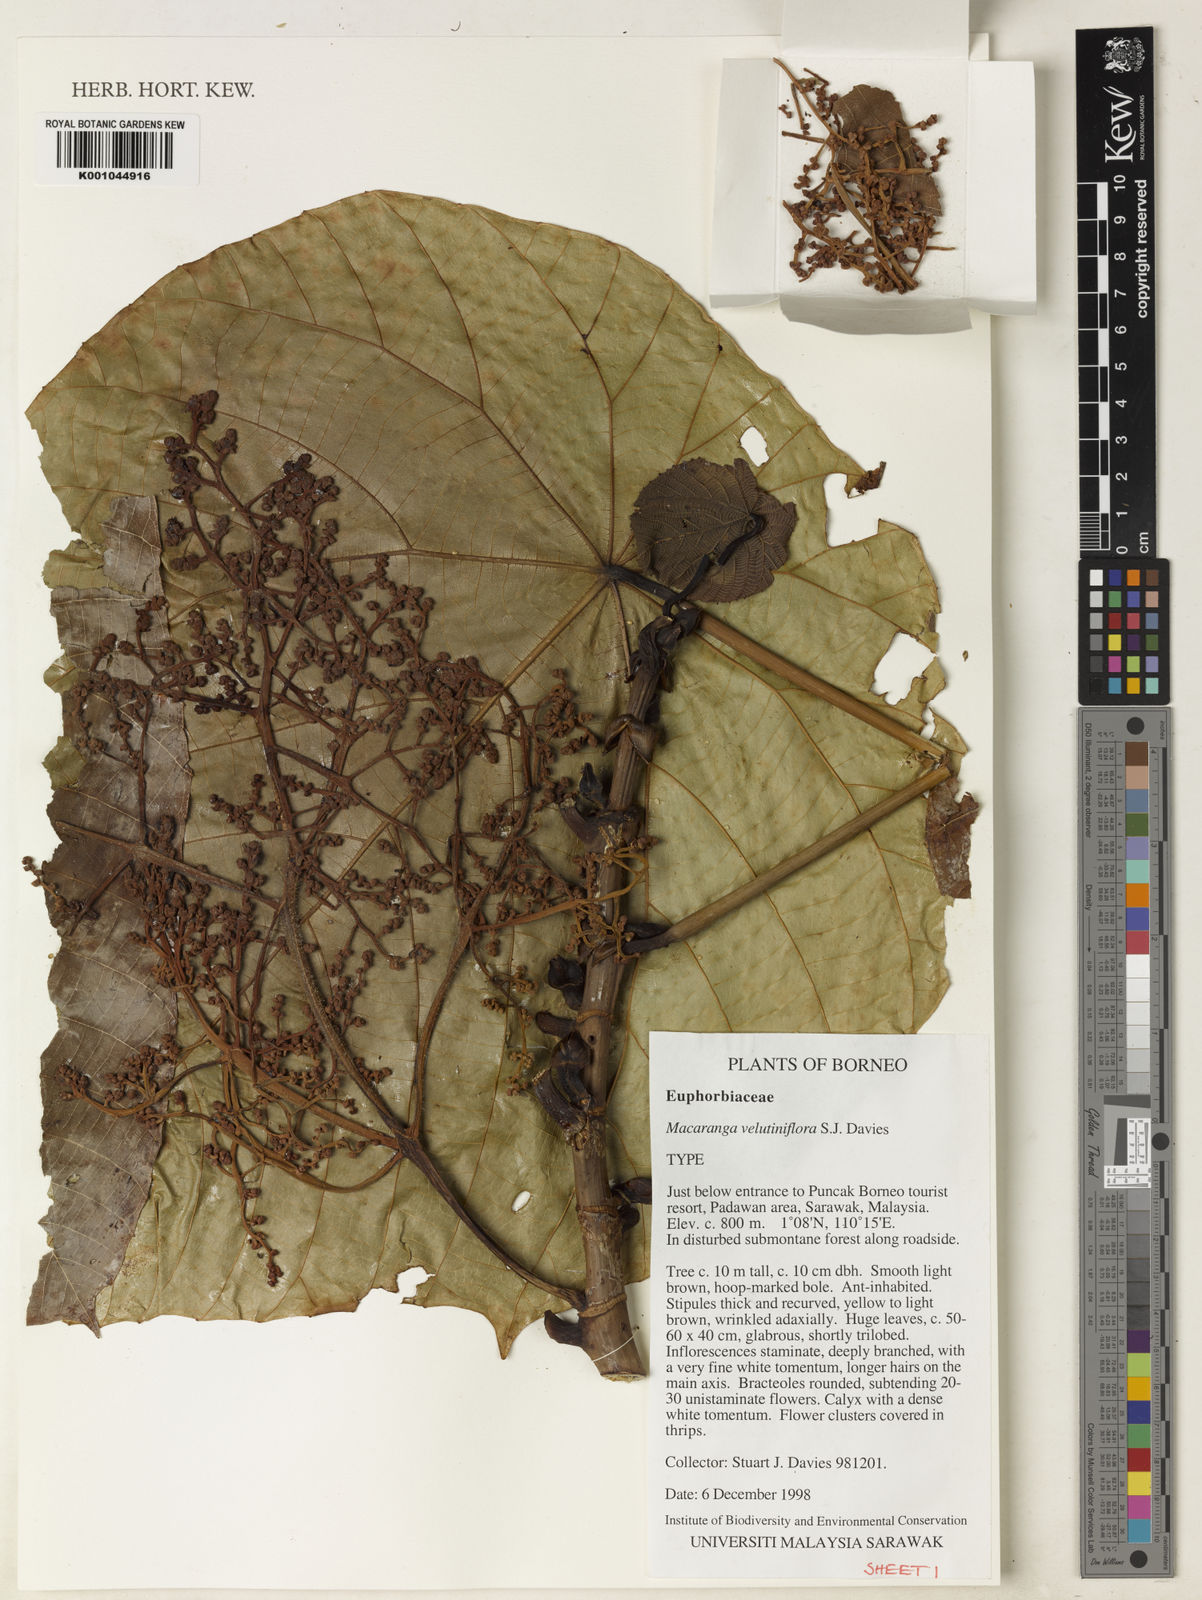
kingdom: Plantae
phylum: Tracheophyta
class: Magnoliopsida
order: Malpighiales
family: Euphorbiaceae
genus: Macaranga
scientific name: Macaranga velutiniflora
